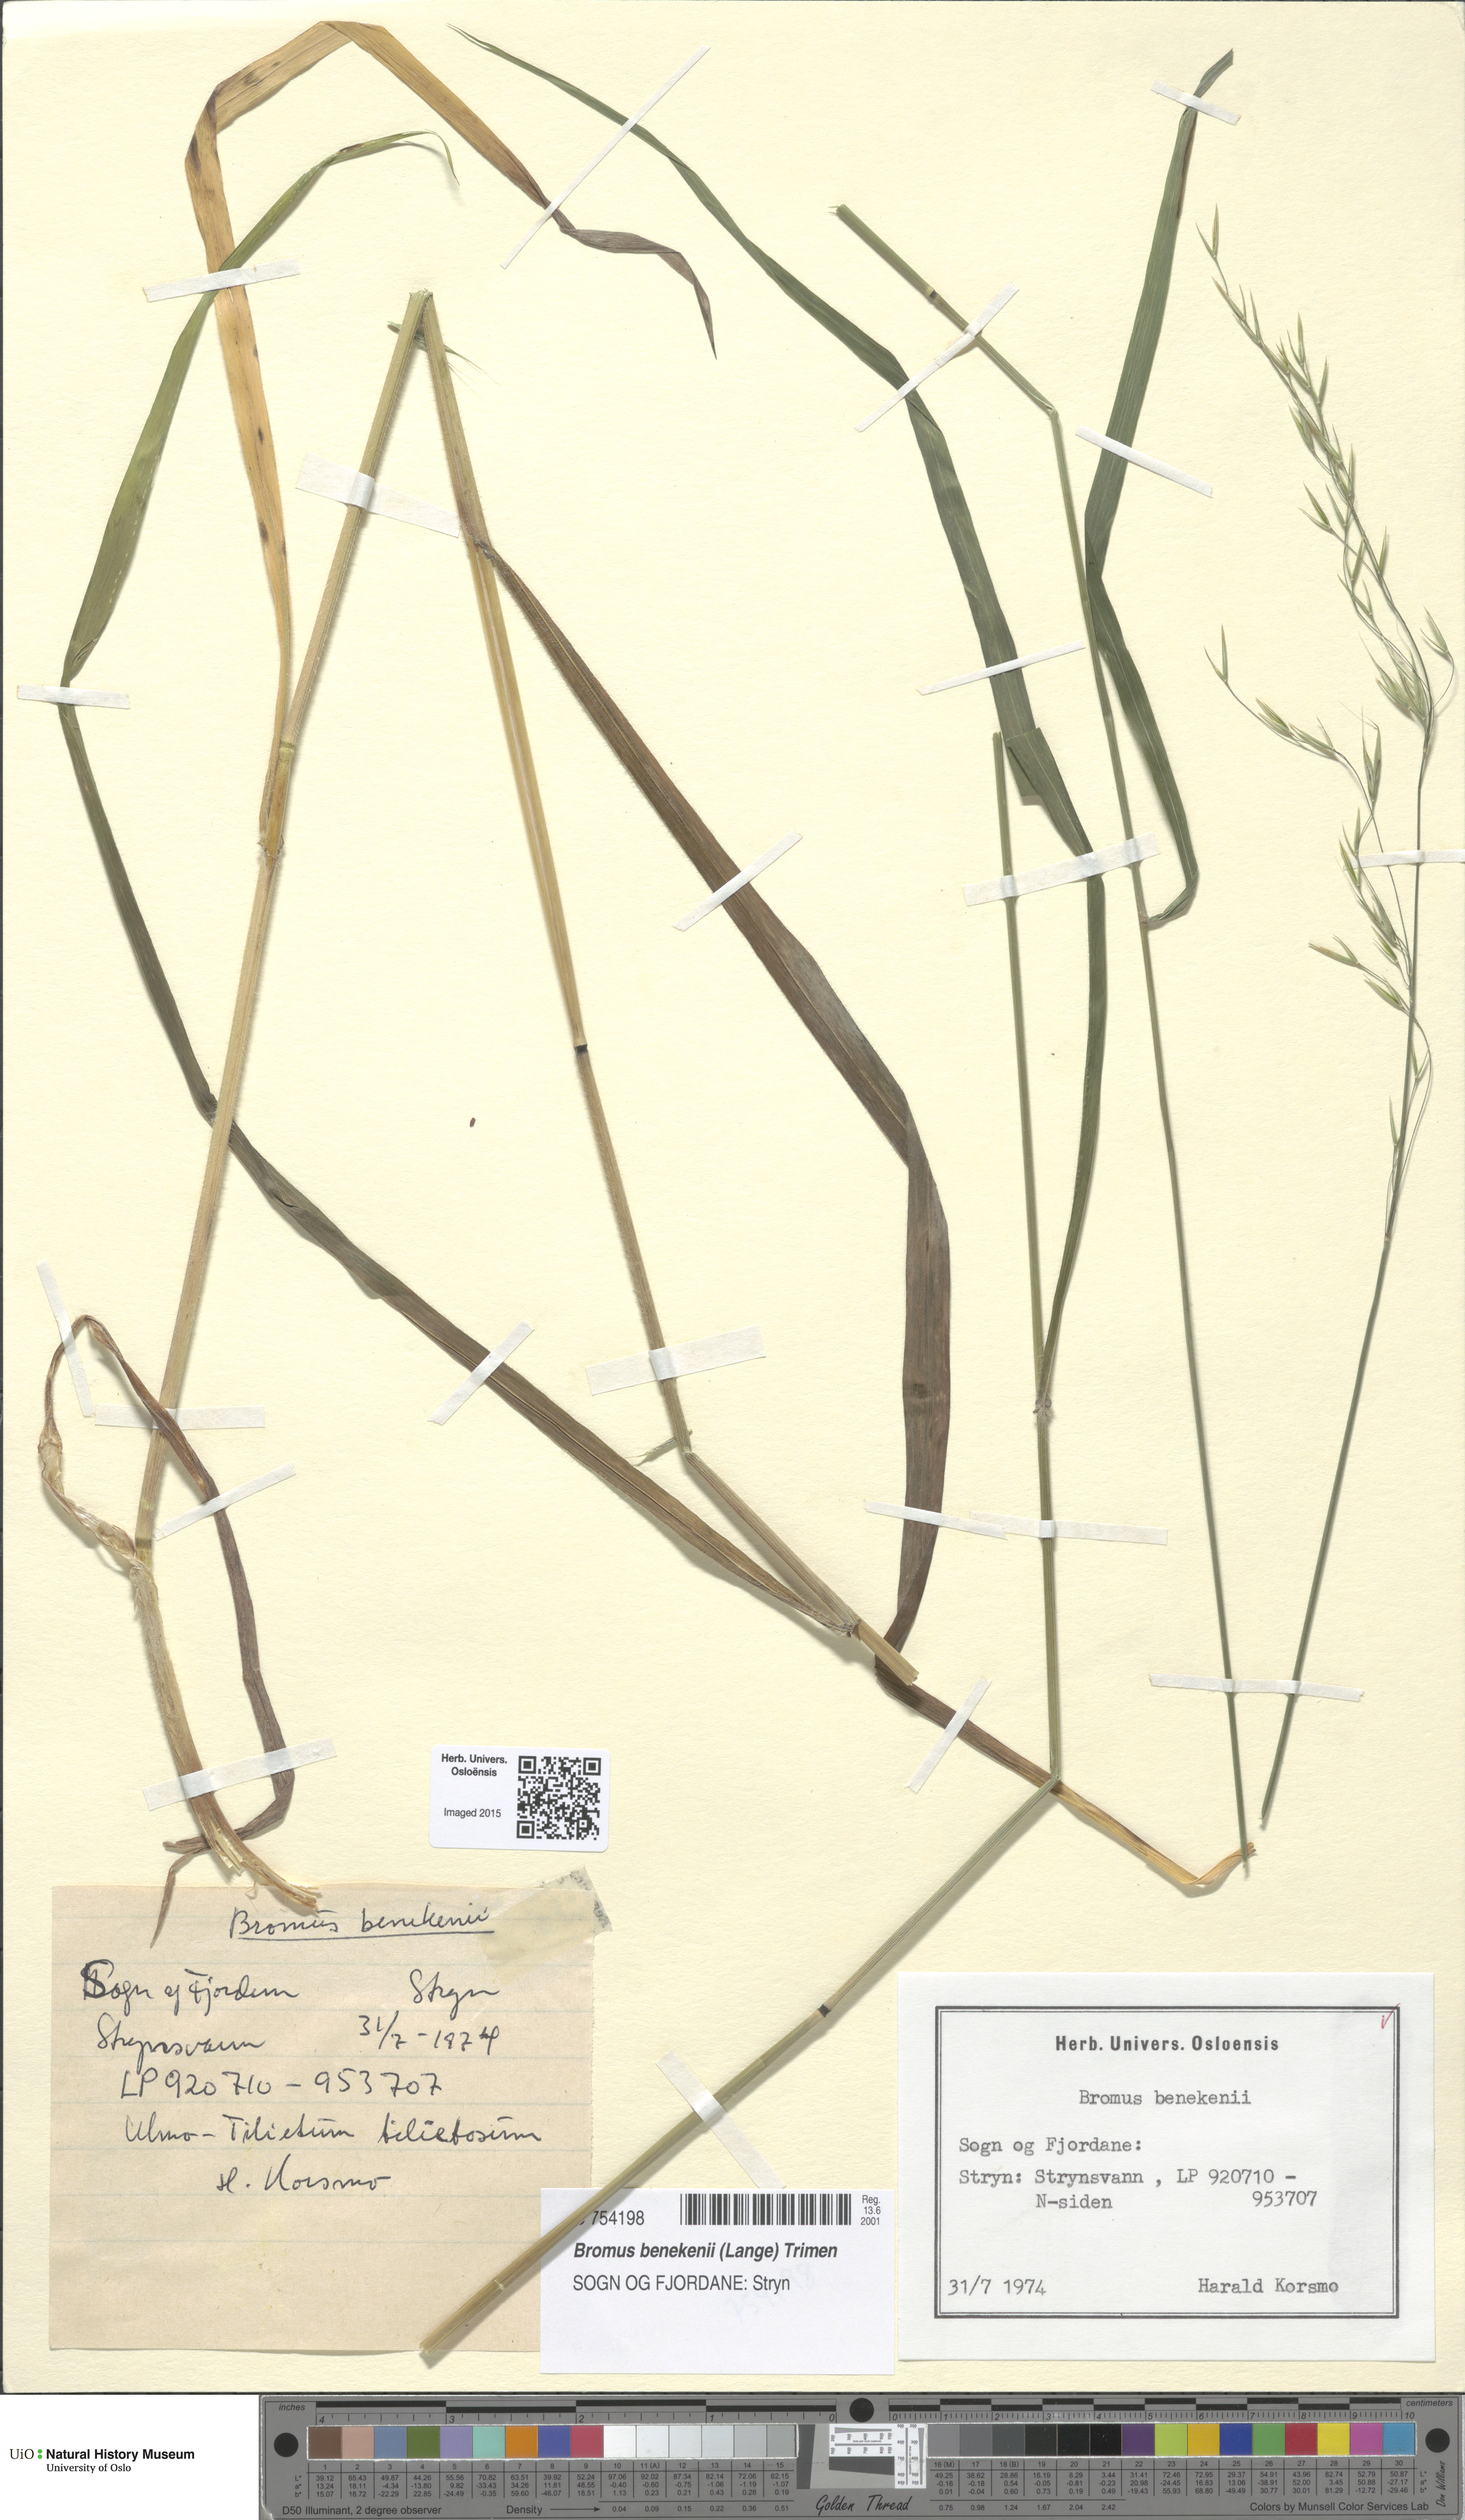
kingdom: Plantae
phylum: Tracheophyta
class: Liliopsida
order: Poales
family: Poaceae
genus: Bromus
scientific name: Bromus benekenii
